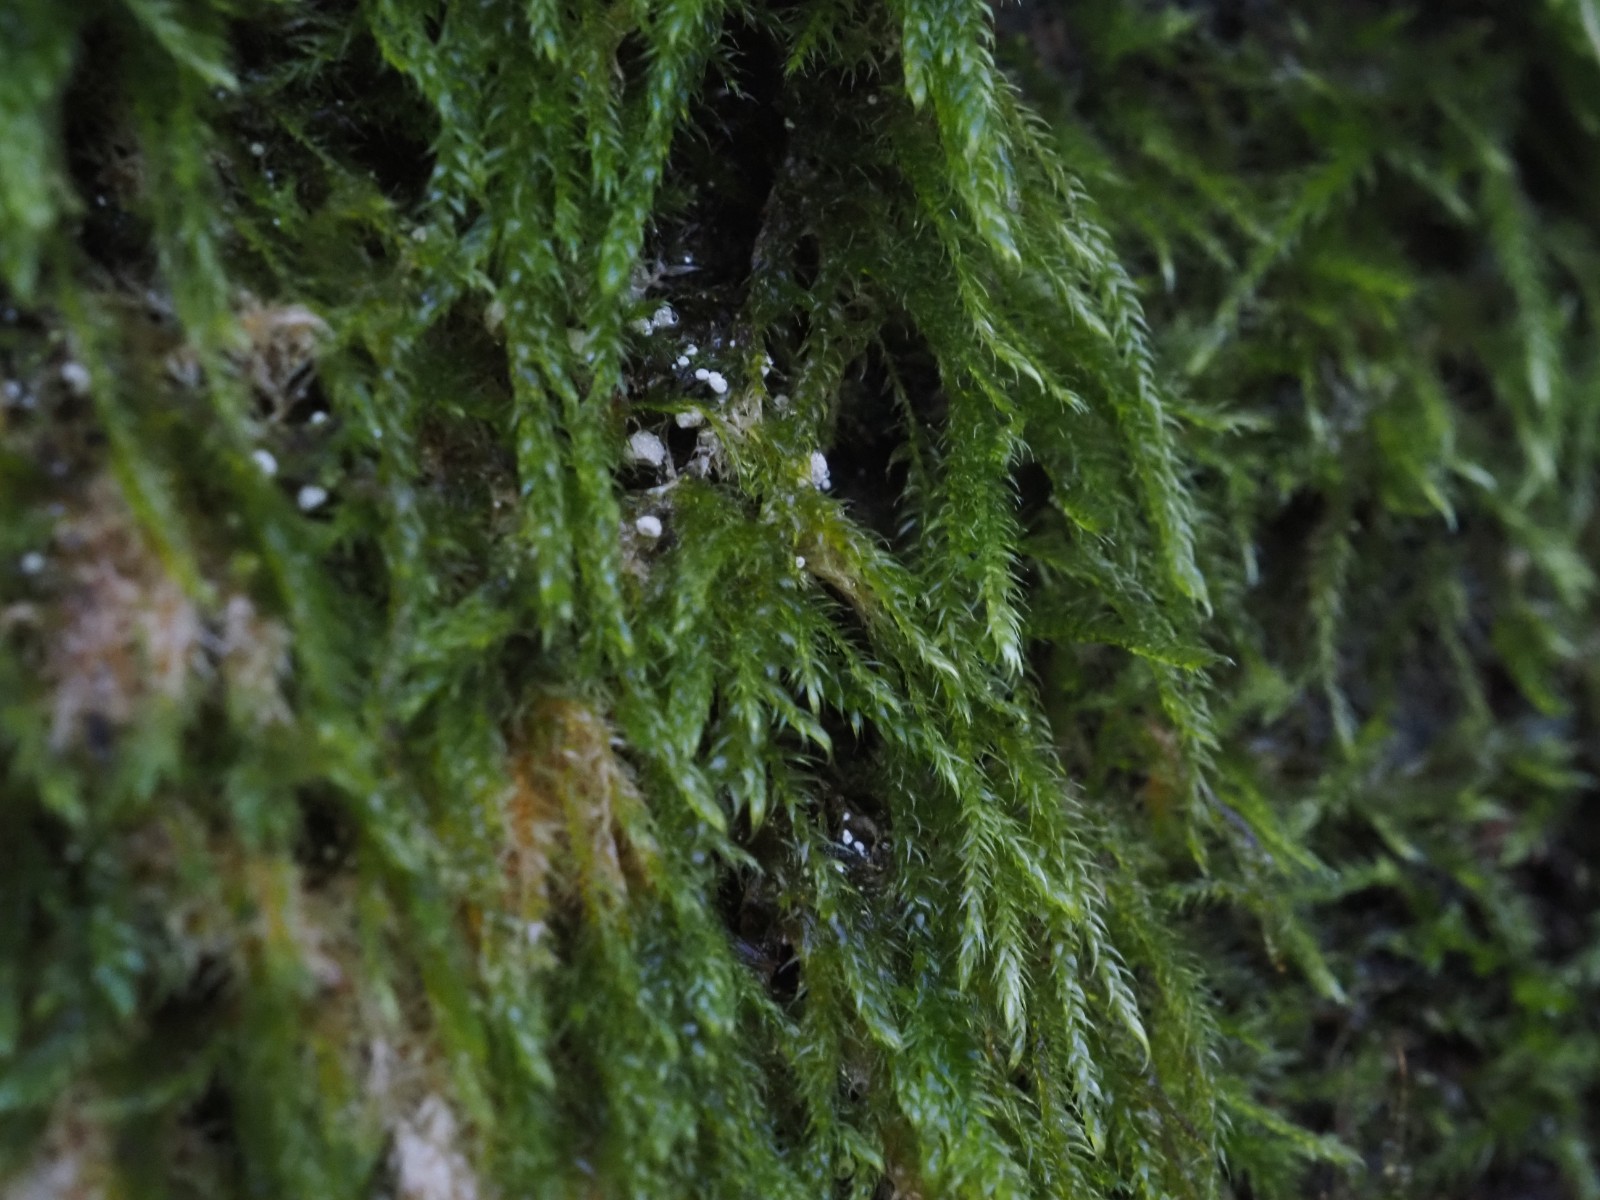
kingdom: Fungi
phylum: Basidiomycota
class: Agaricomycetes
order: Agaricales
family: Chromocyphellaceae
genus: Chromocyphella
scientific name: Chromocyphella muscicola
